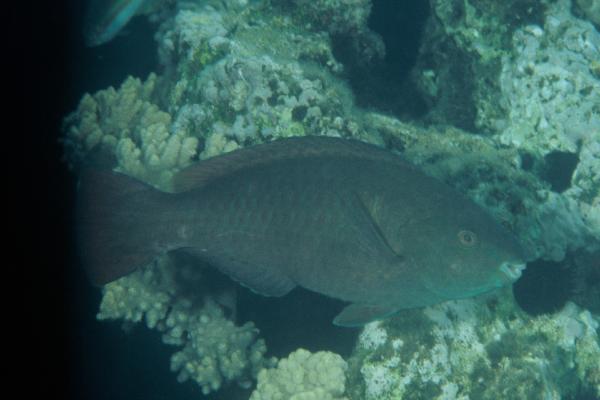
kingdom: Animalia
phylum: Chordata
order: Perciformes
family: Scaridae
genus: Scarus
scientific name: Scarus fuscopurpureus
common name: Purple-brown parrotfish
